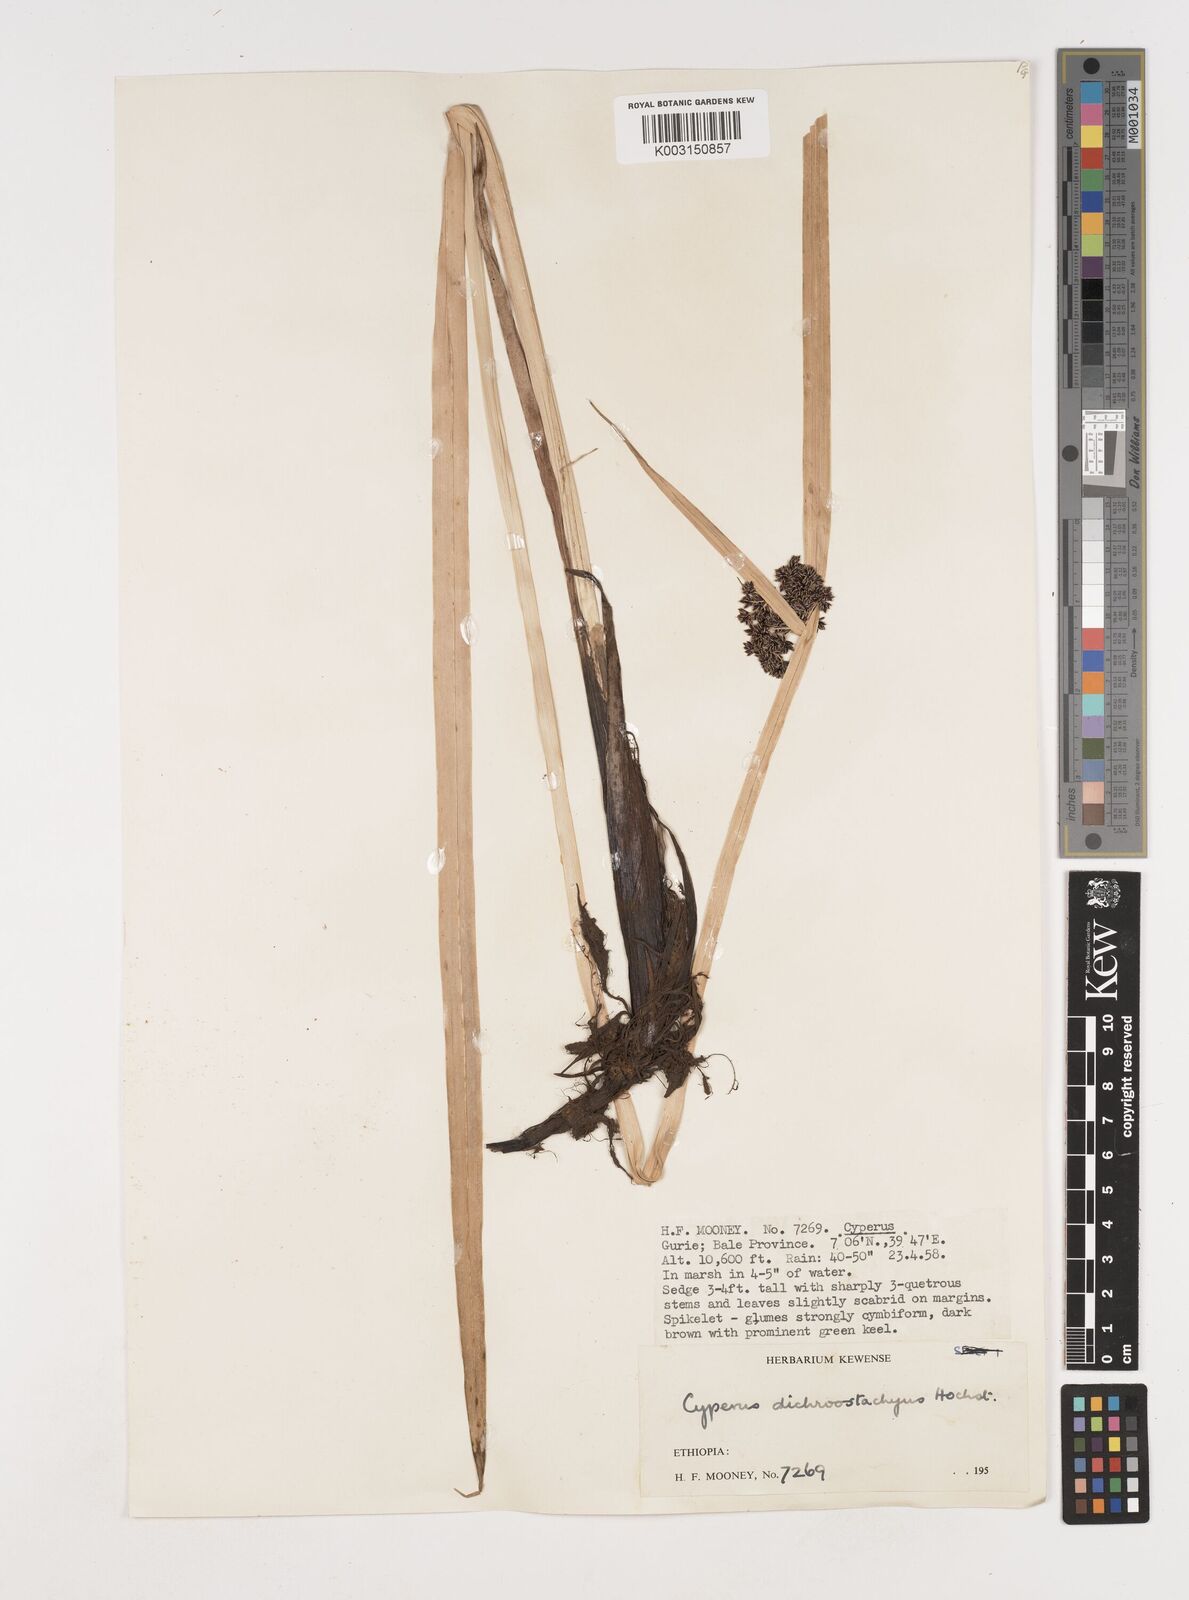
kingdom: Plantae
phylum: Tracheophyta
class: Liliopsida
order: Poales
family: Cyperaceae
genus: Cyperus
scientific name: Cyperus dichrostachyus
